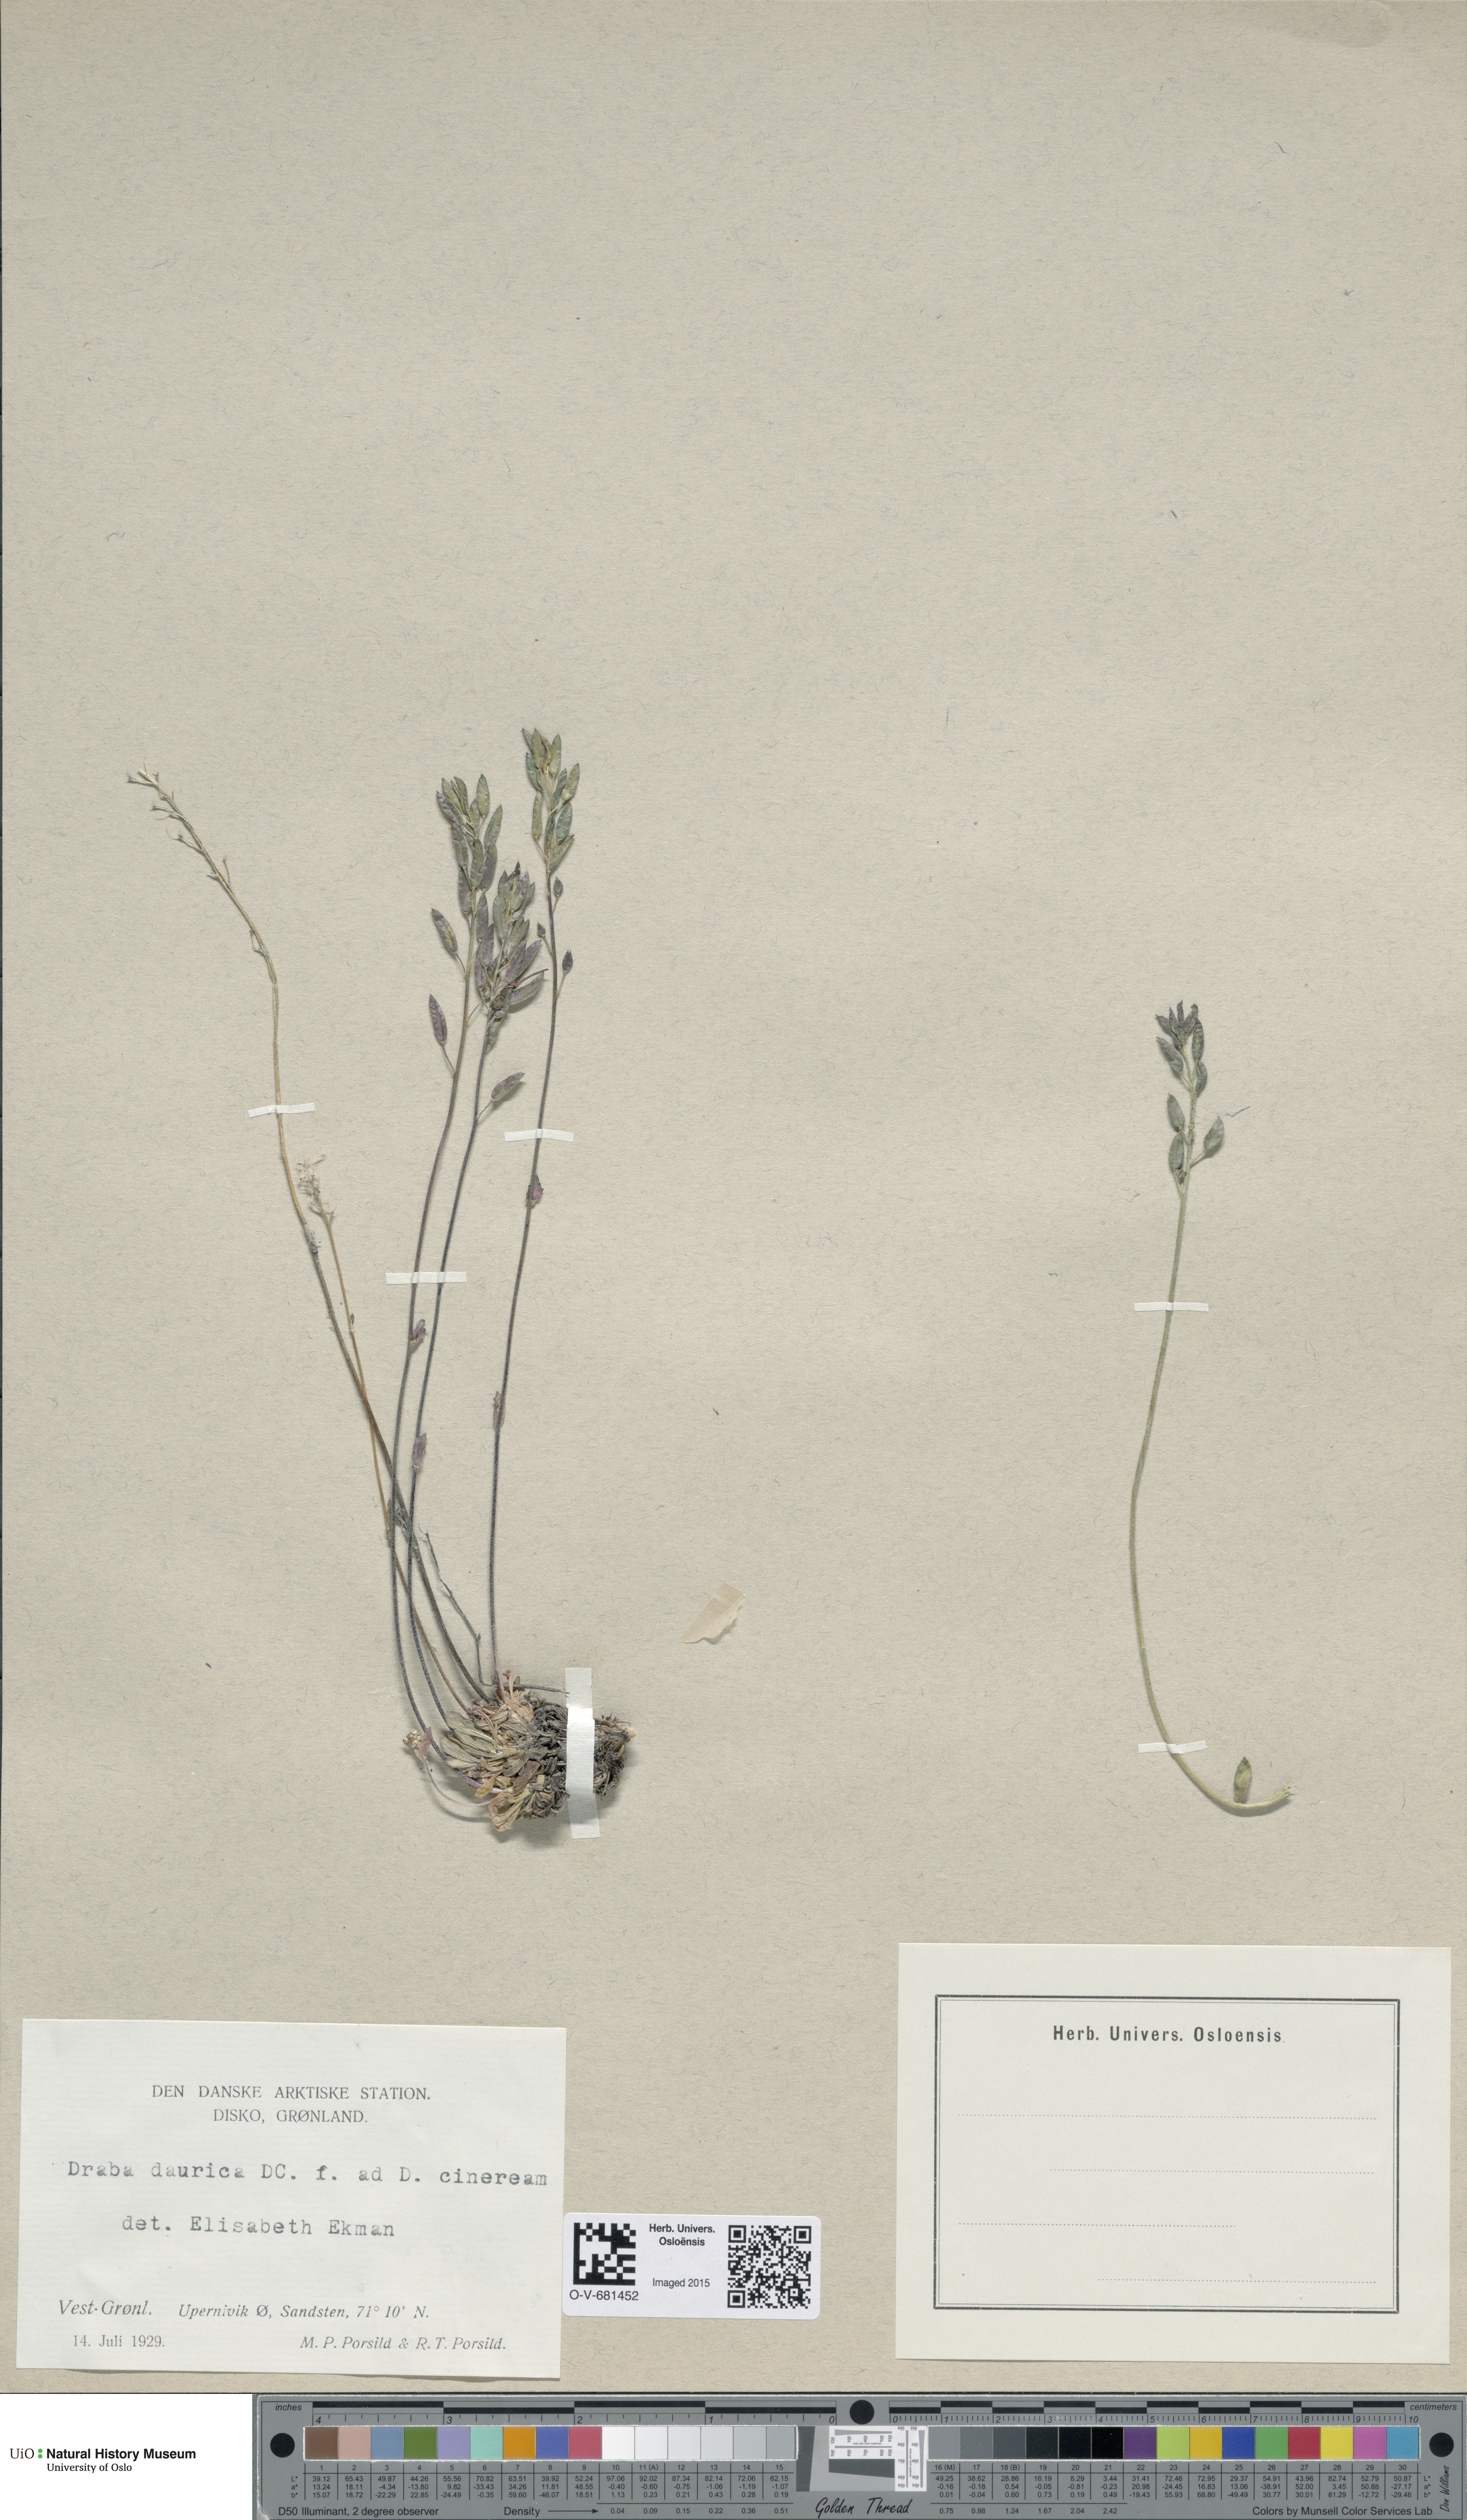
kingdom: Plantae
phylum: Tracheophyta
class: Magnoliopsida
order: Brassicales
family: Brassicaceae
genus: Draba
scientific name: Draba glabella
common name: Glaucous draba
